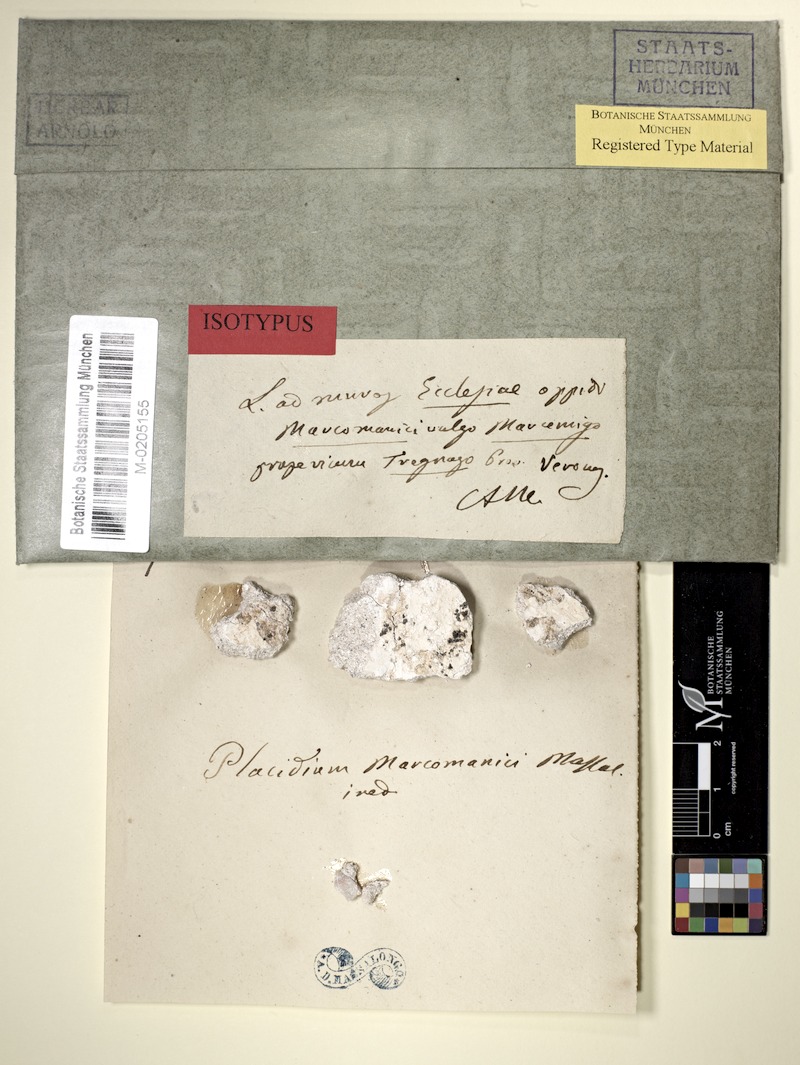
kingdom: Fungi
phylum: Ascomycota
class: Eurotiomycetes
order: Verrucariales
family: Verrucariaceae
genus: Dermatocarpon
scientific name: Dermatocarpon
